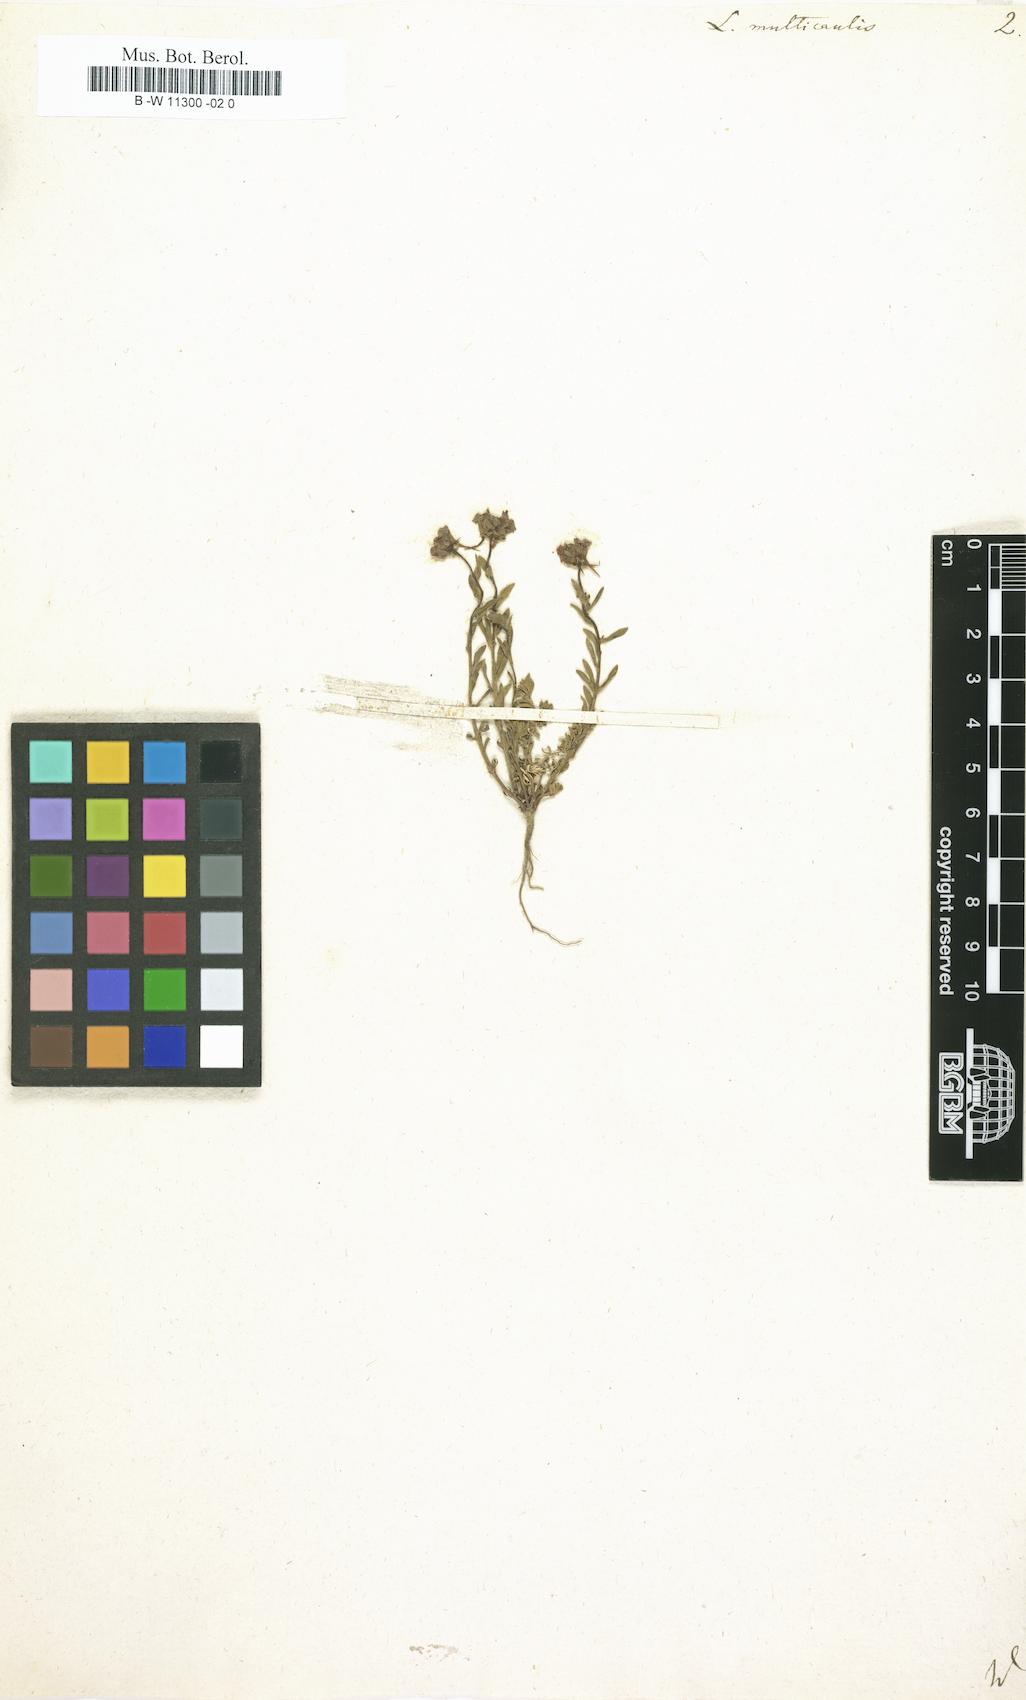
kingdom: Plantae
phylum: Tracheophyta
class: Magnoliopsida
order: Lamiales
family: Plantaginaceae
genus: Linaria
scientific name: Linaria multicaulis
